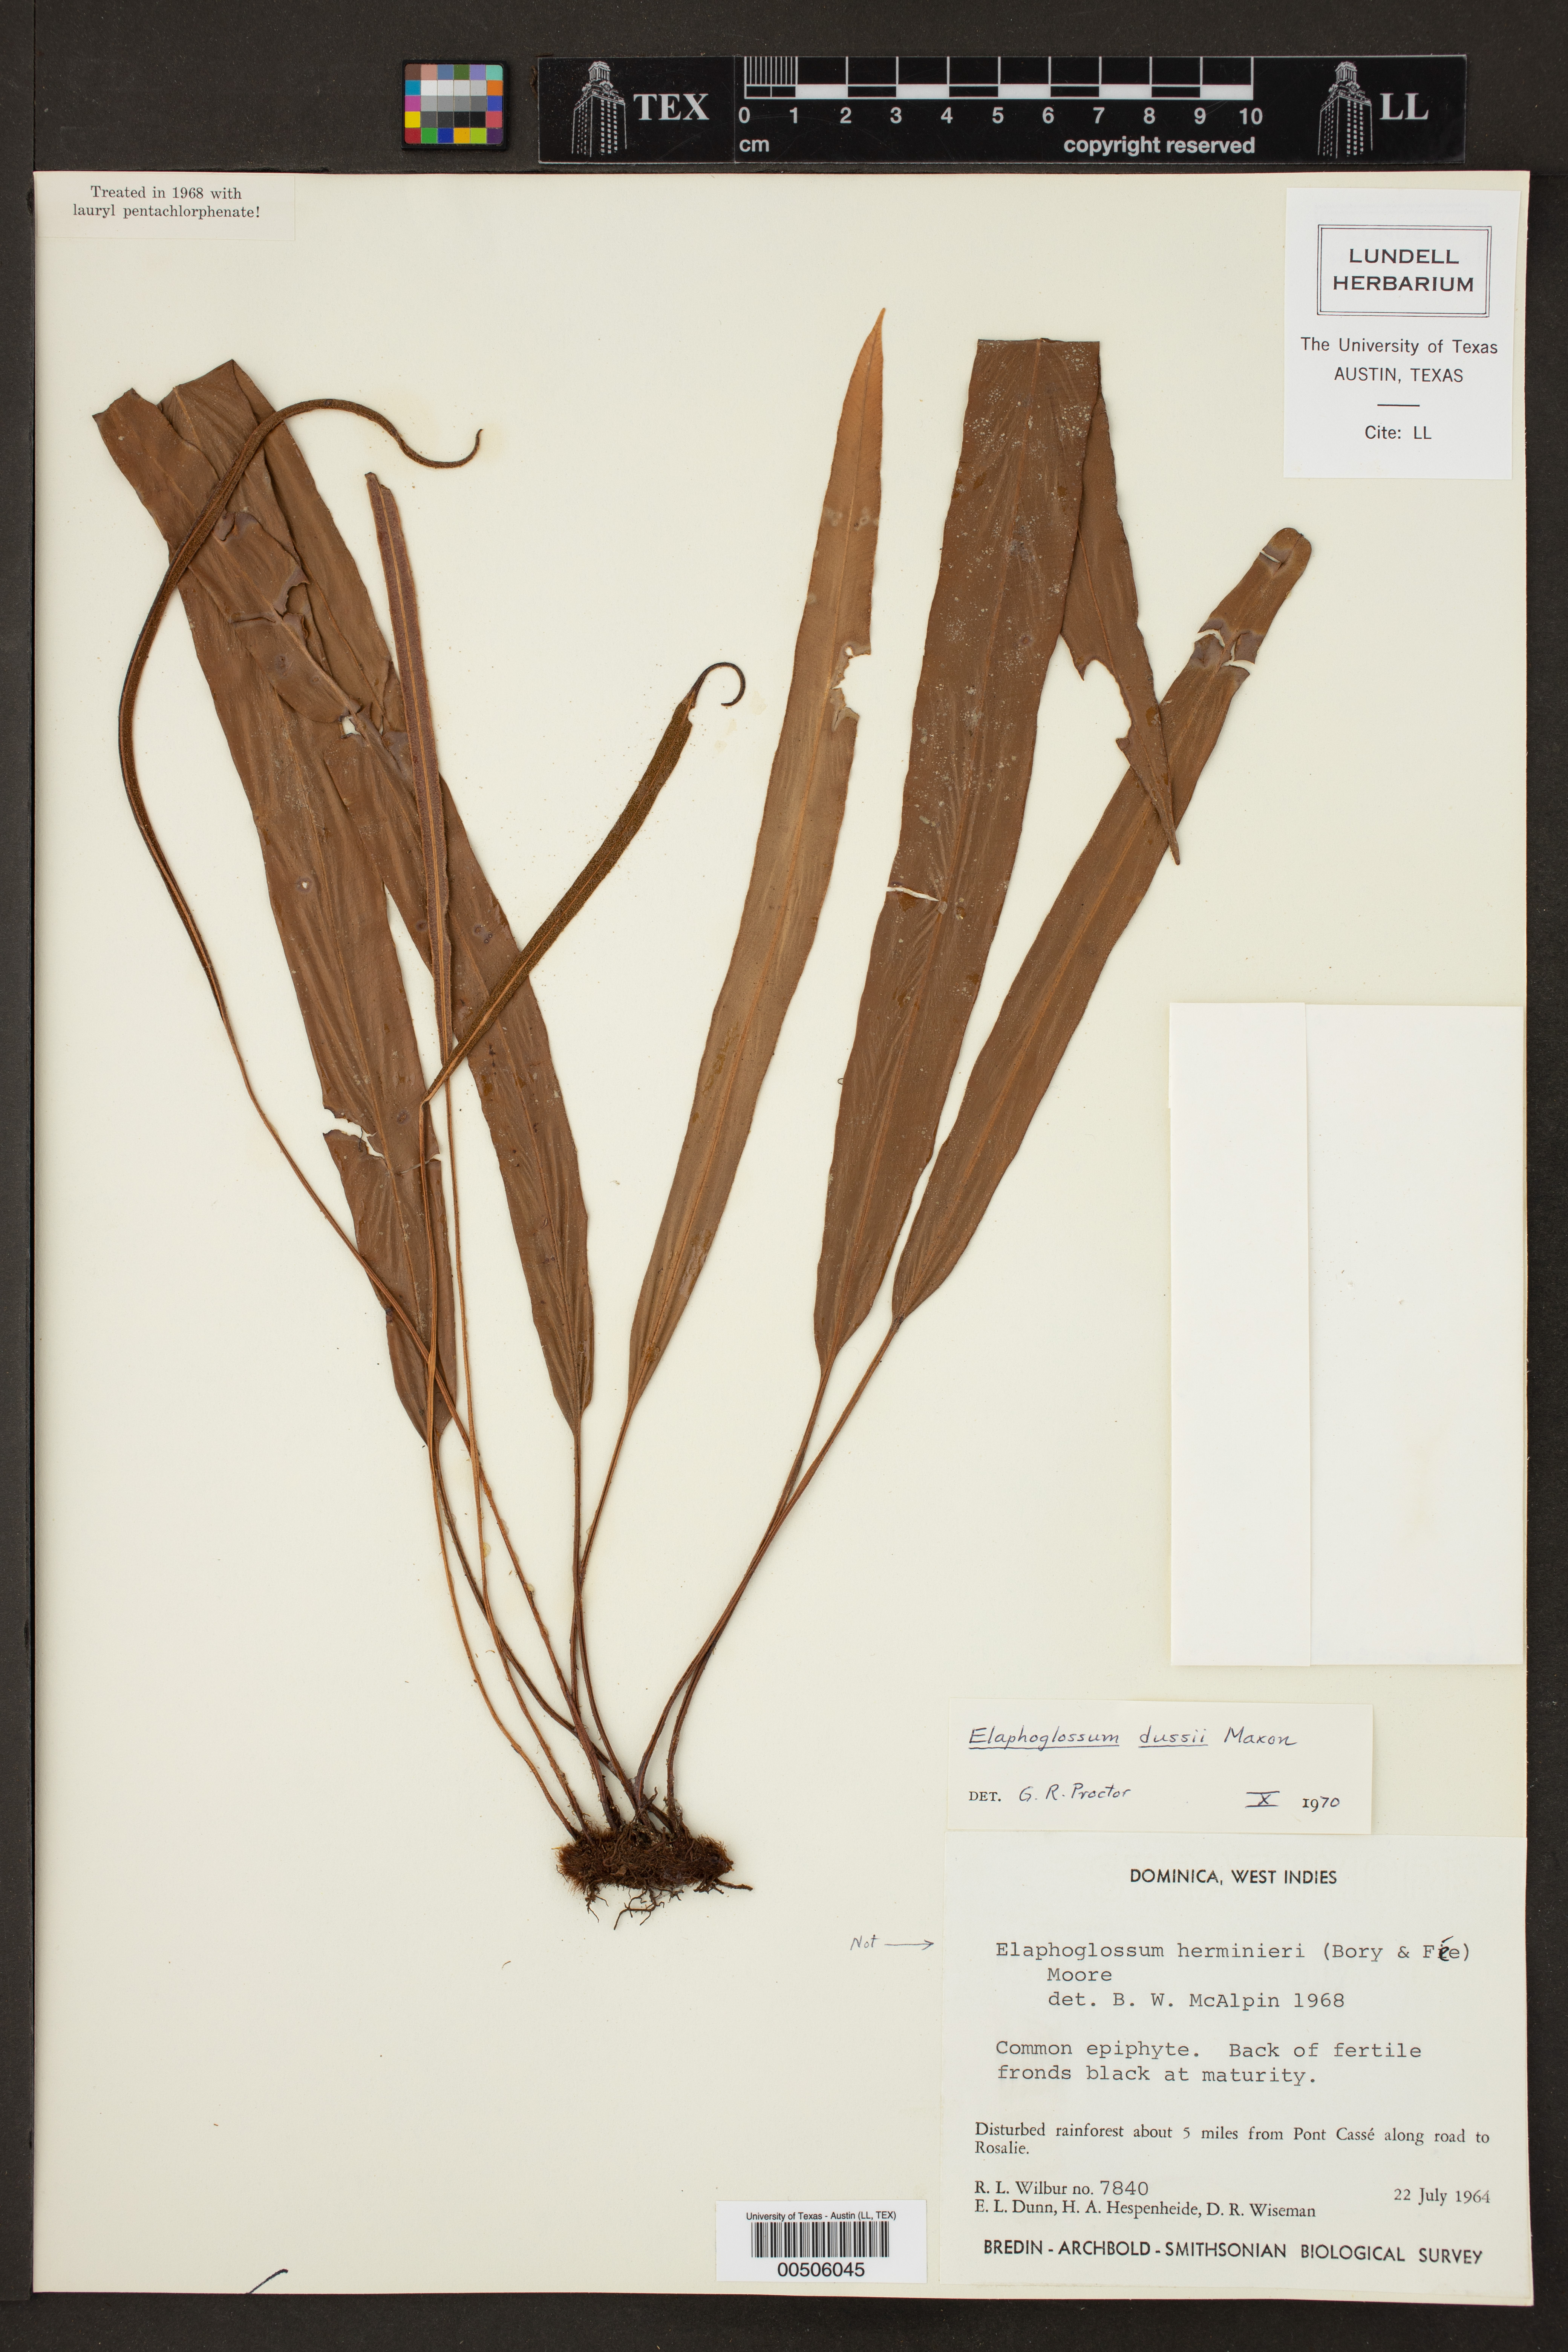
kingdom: Plantae
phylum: Tracheophyta
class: Polypodiopsida
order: Polypodiales
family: Dryopteridaceae
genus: Elaphoglossum
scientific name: Elaphoglossum dussii
